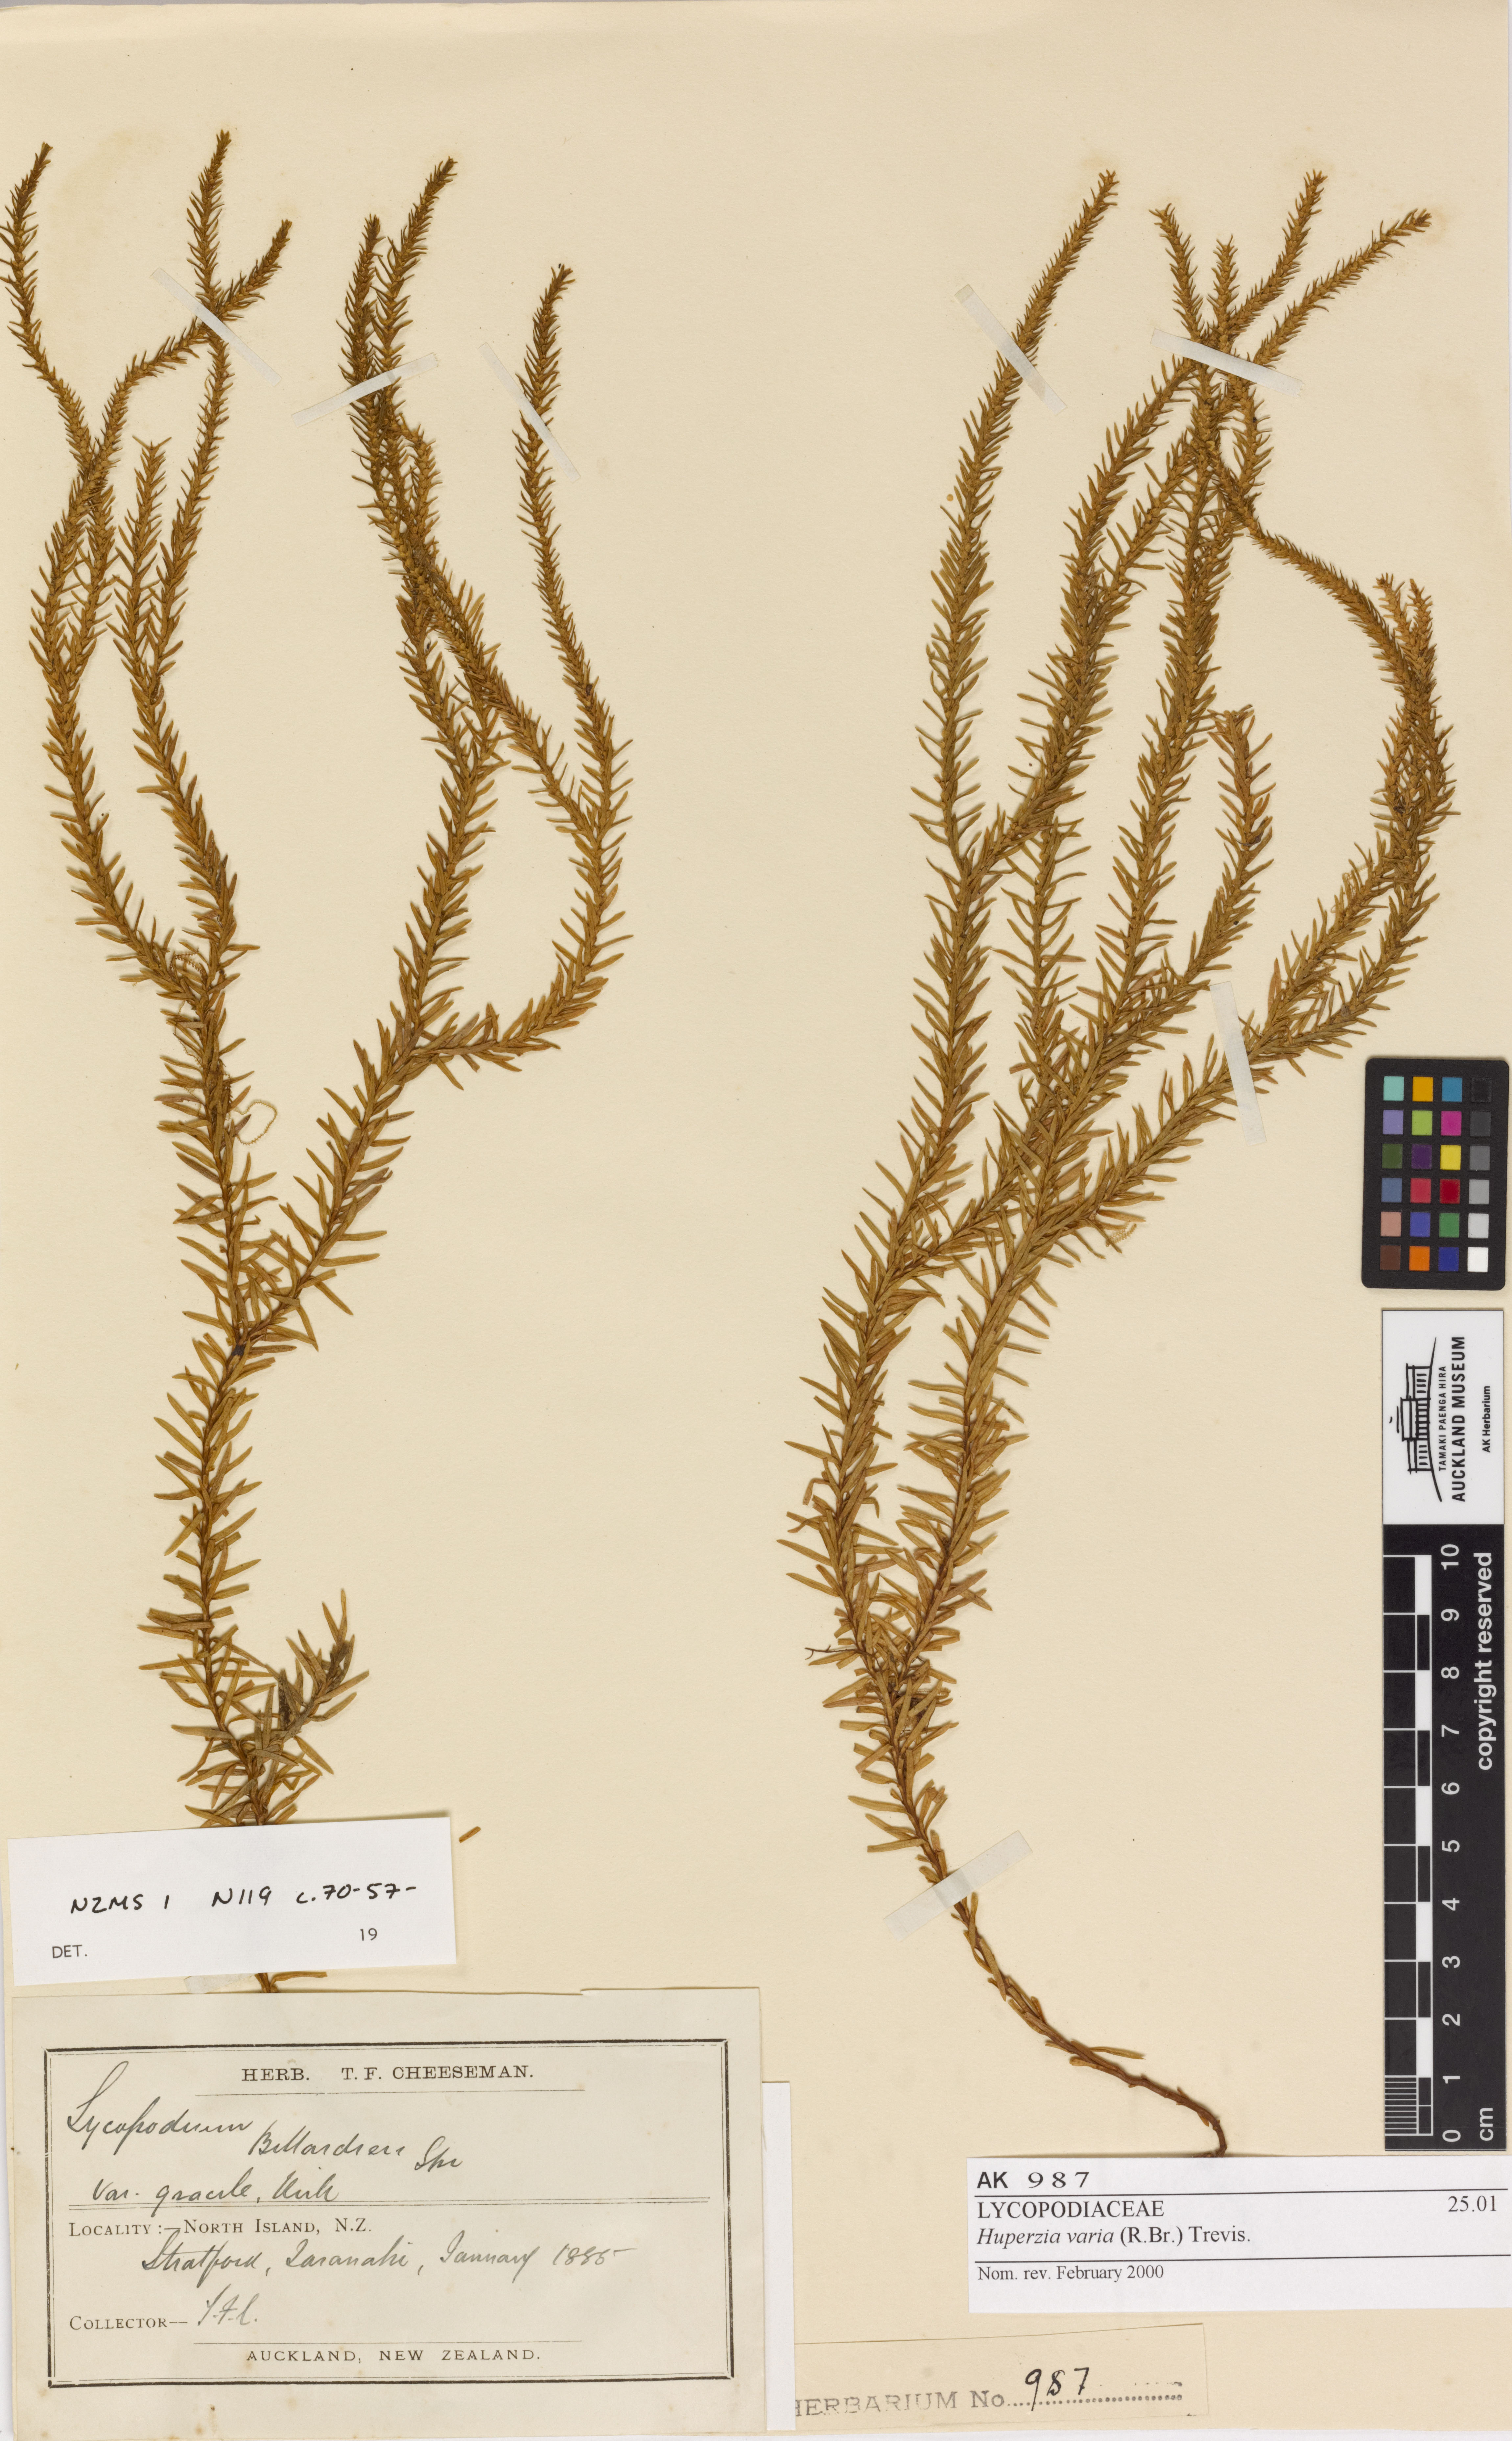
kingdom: Plantae
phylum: Tracheophyta
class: Lycopodiopsida
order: Lycopodiales
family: Lycopodiaceae
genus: Phlegmariurus
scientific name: Phlegmariurus varius
